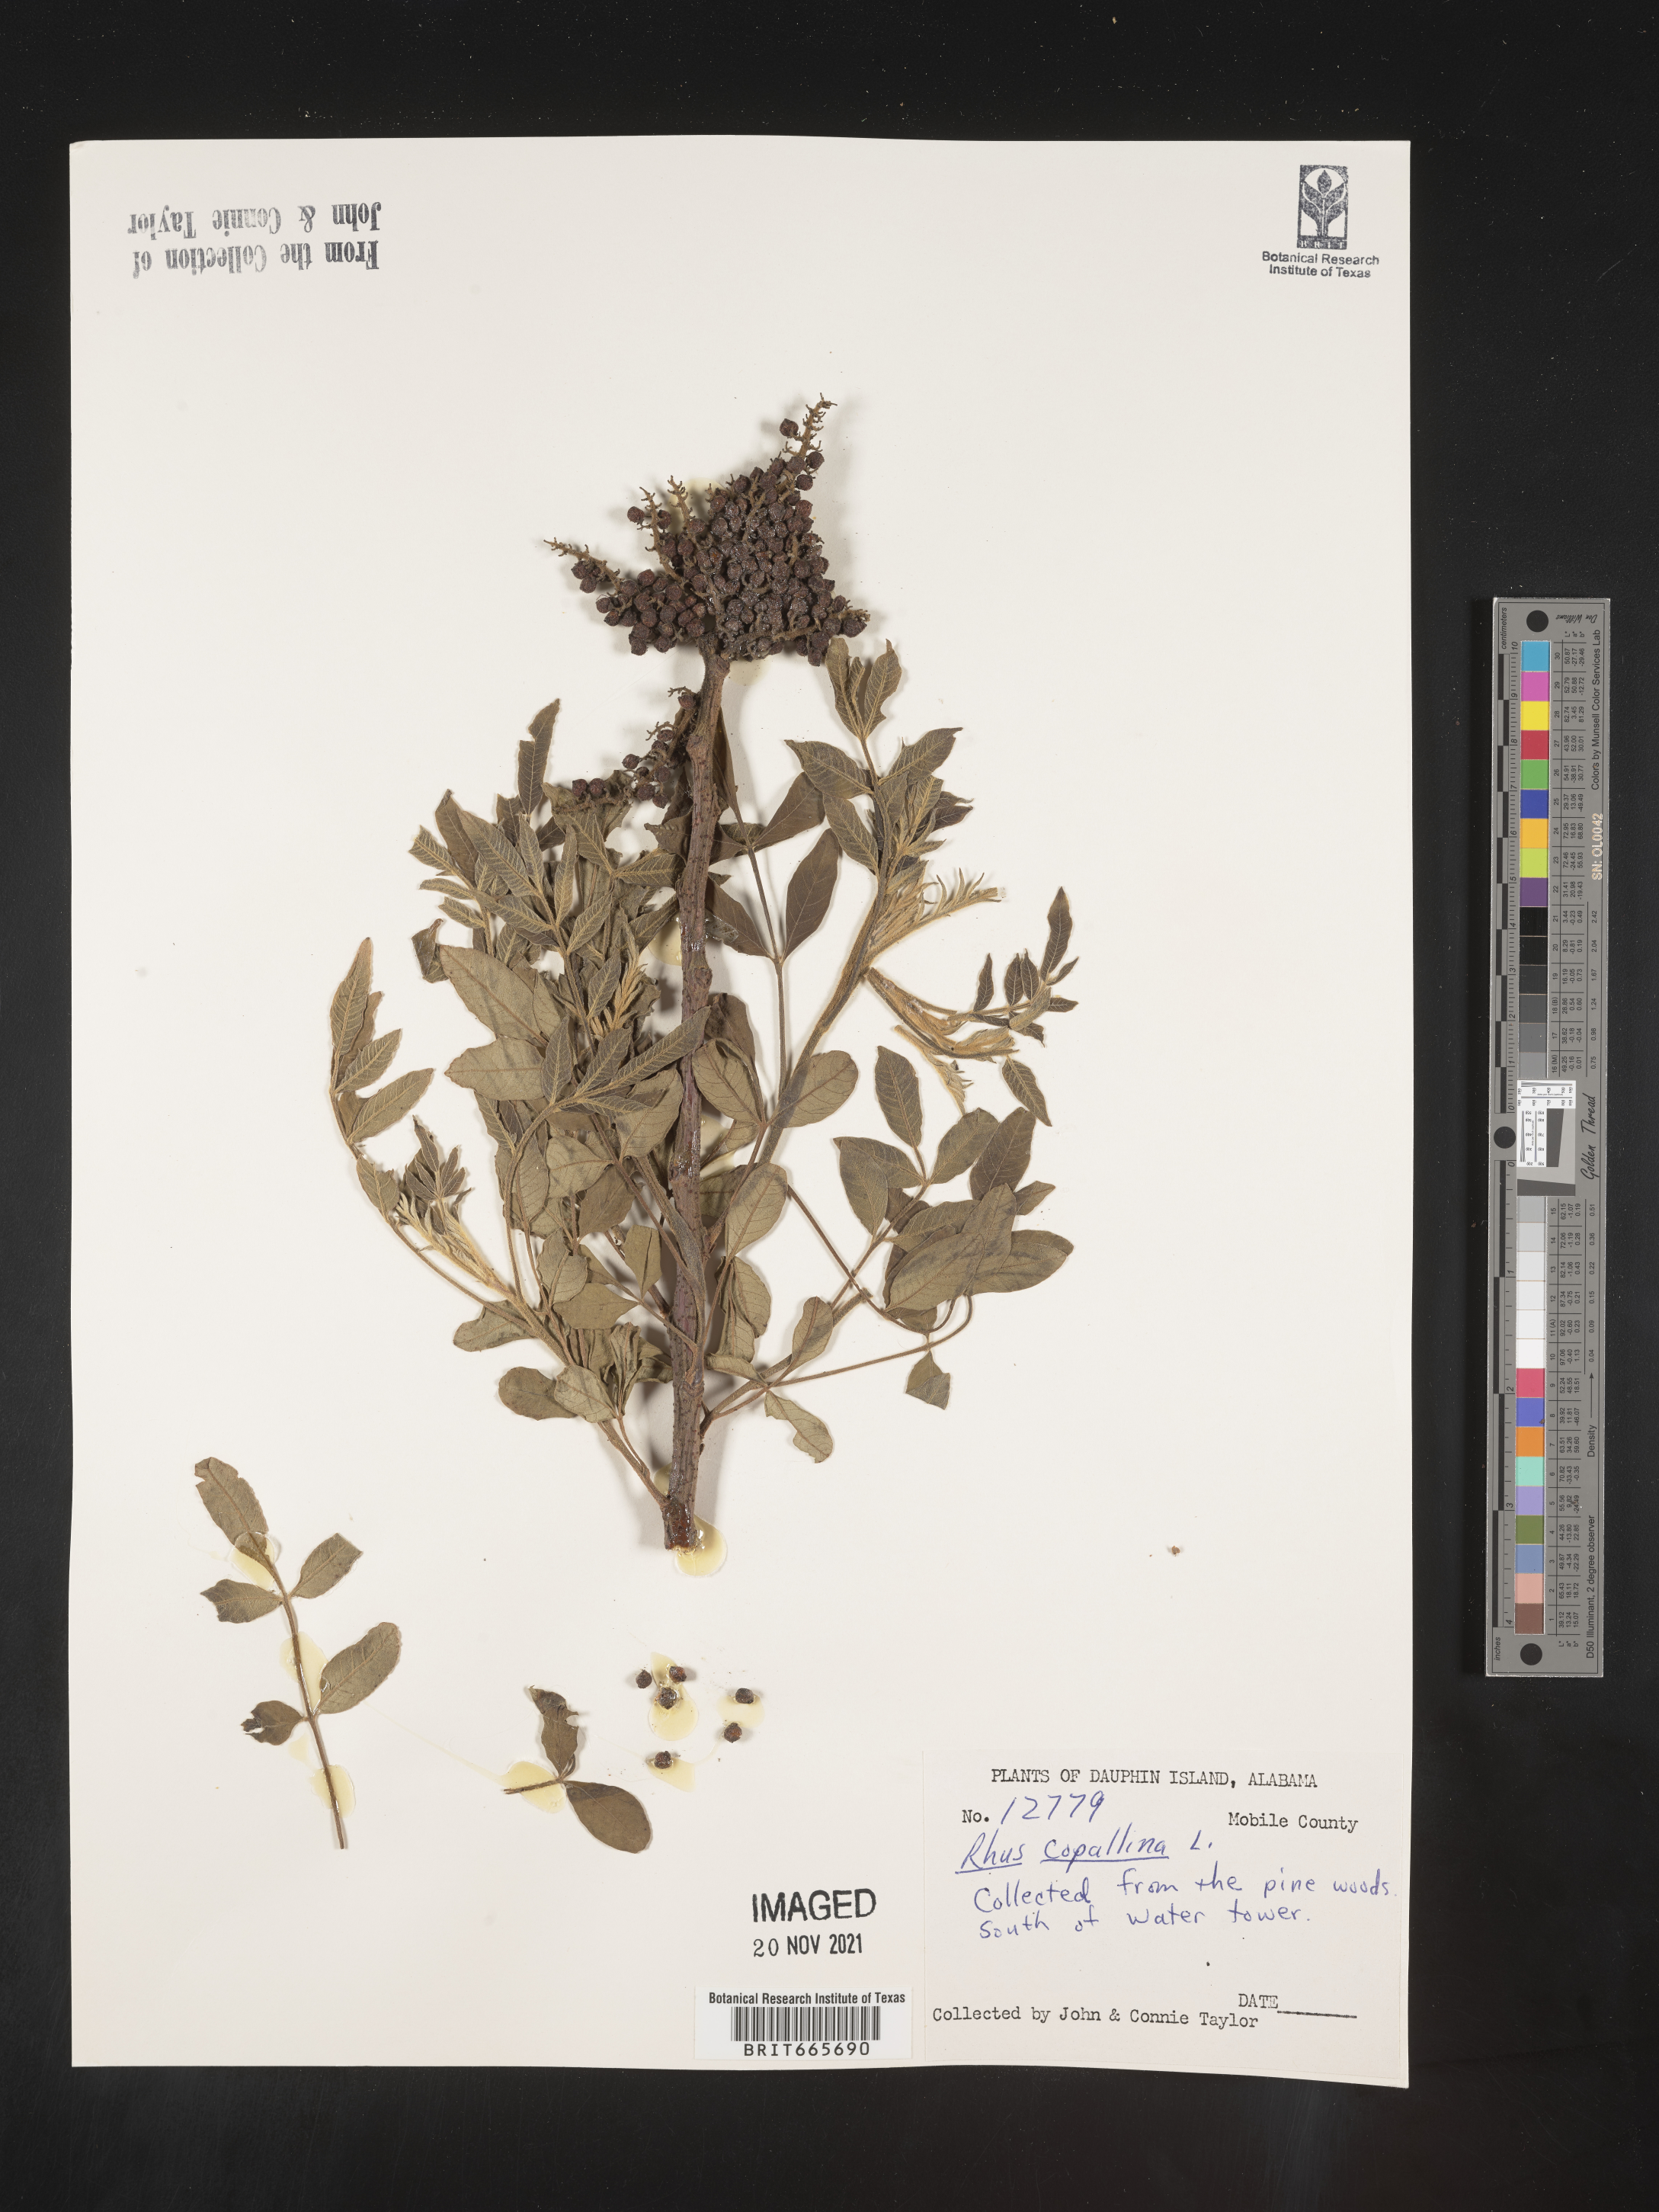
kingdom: Plantae
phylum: Tracheophyta
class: Magnoliopsida
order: Sapindales
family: Anacardiaceae
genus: Rhus
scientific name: Rhus copallina
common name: Shining sumac
